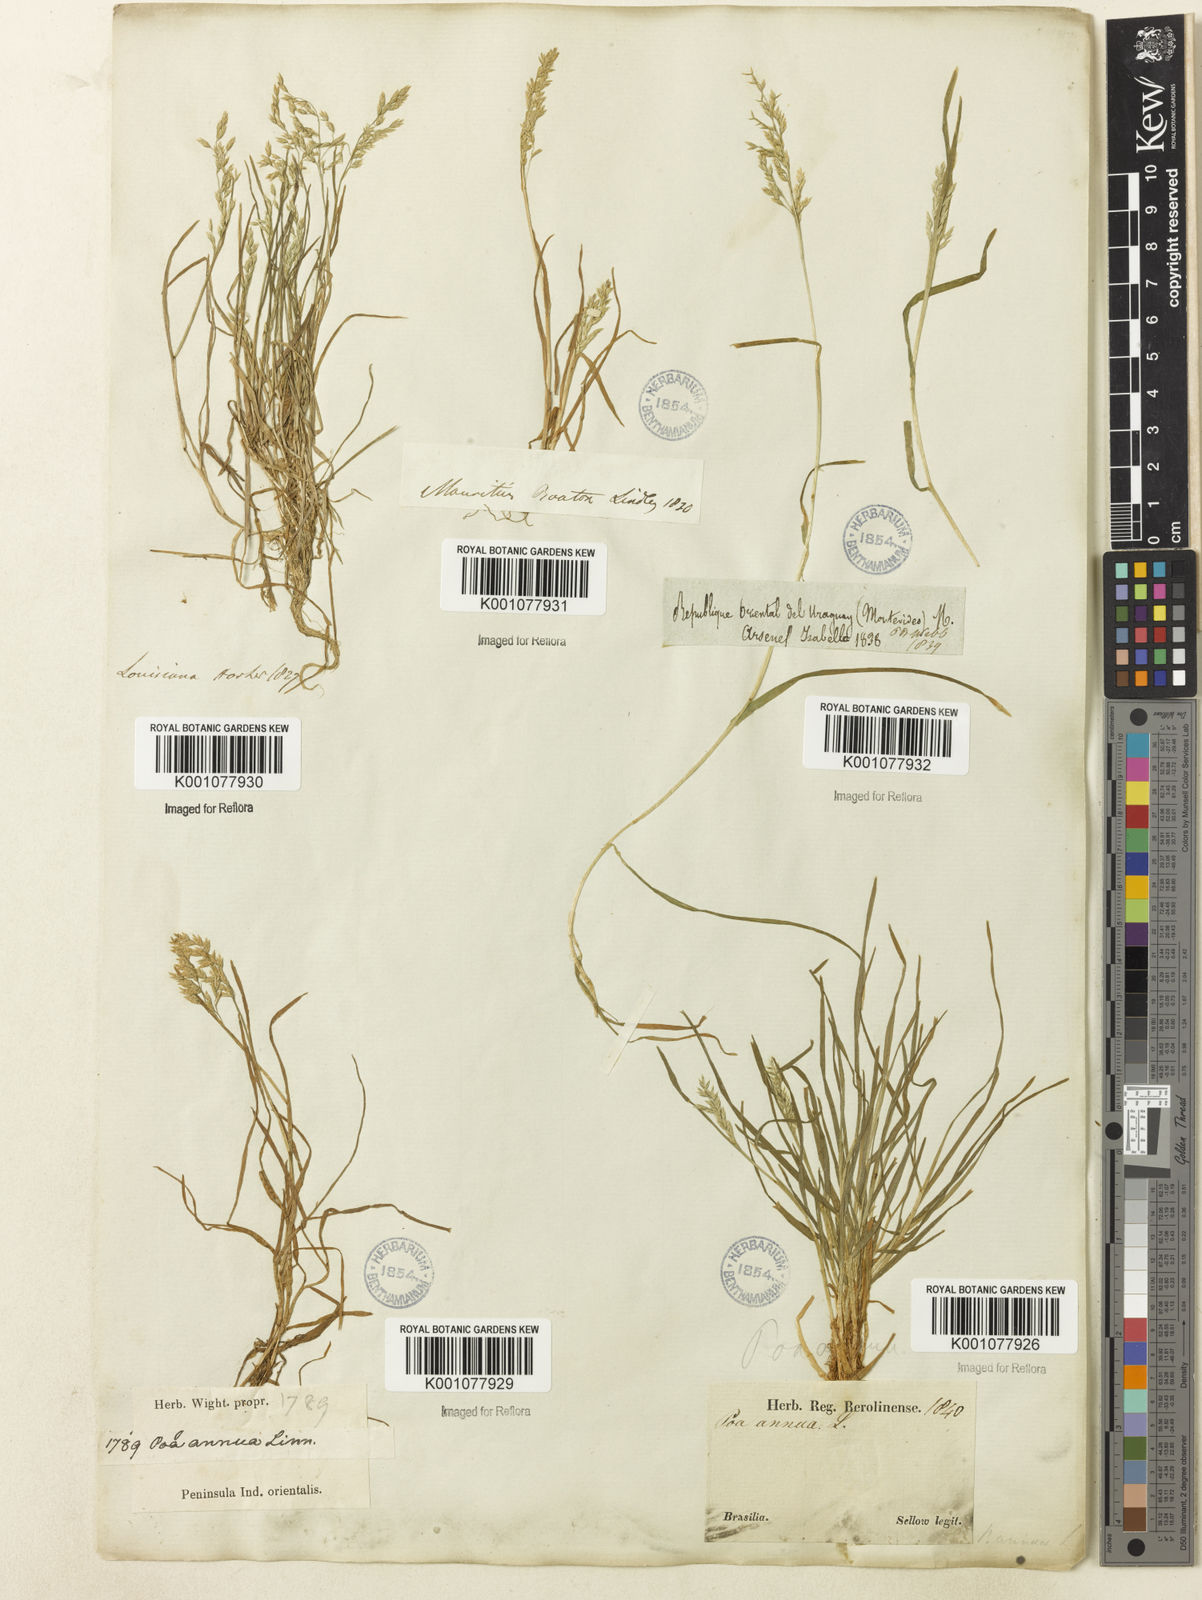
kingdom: Plantae
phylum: Tracheophyta
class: Liliopsida
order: Poales
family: Poaceae
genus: Poa
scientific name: Poa annua
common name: Annual bluegrass
